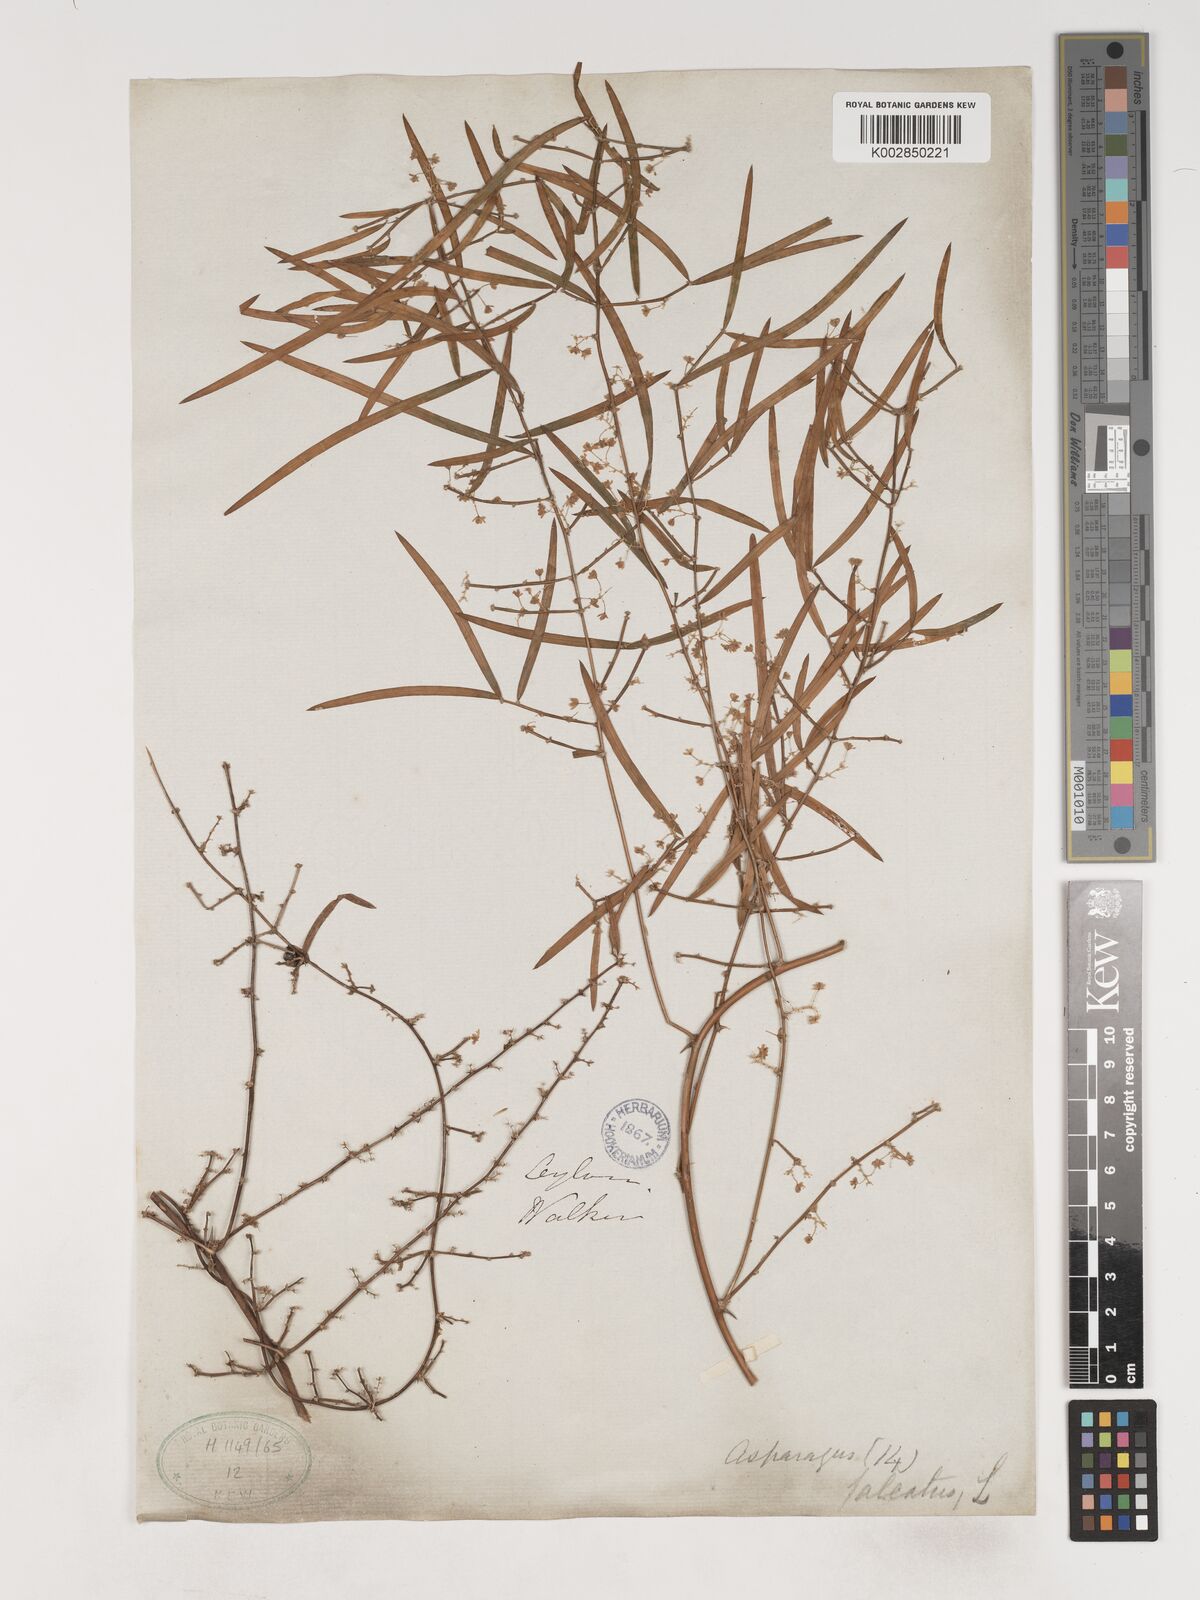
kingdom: Plantae
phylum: Tracheophyta
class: Liliopsida
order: Asparagales
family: Asparagaceae
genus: Asparagus
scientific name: Asparagus falcatus
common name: Asparagus
